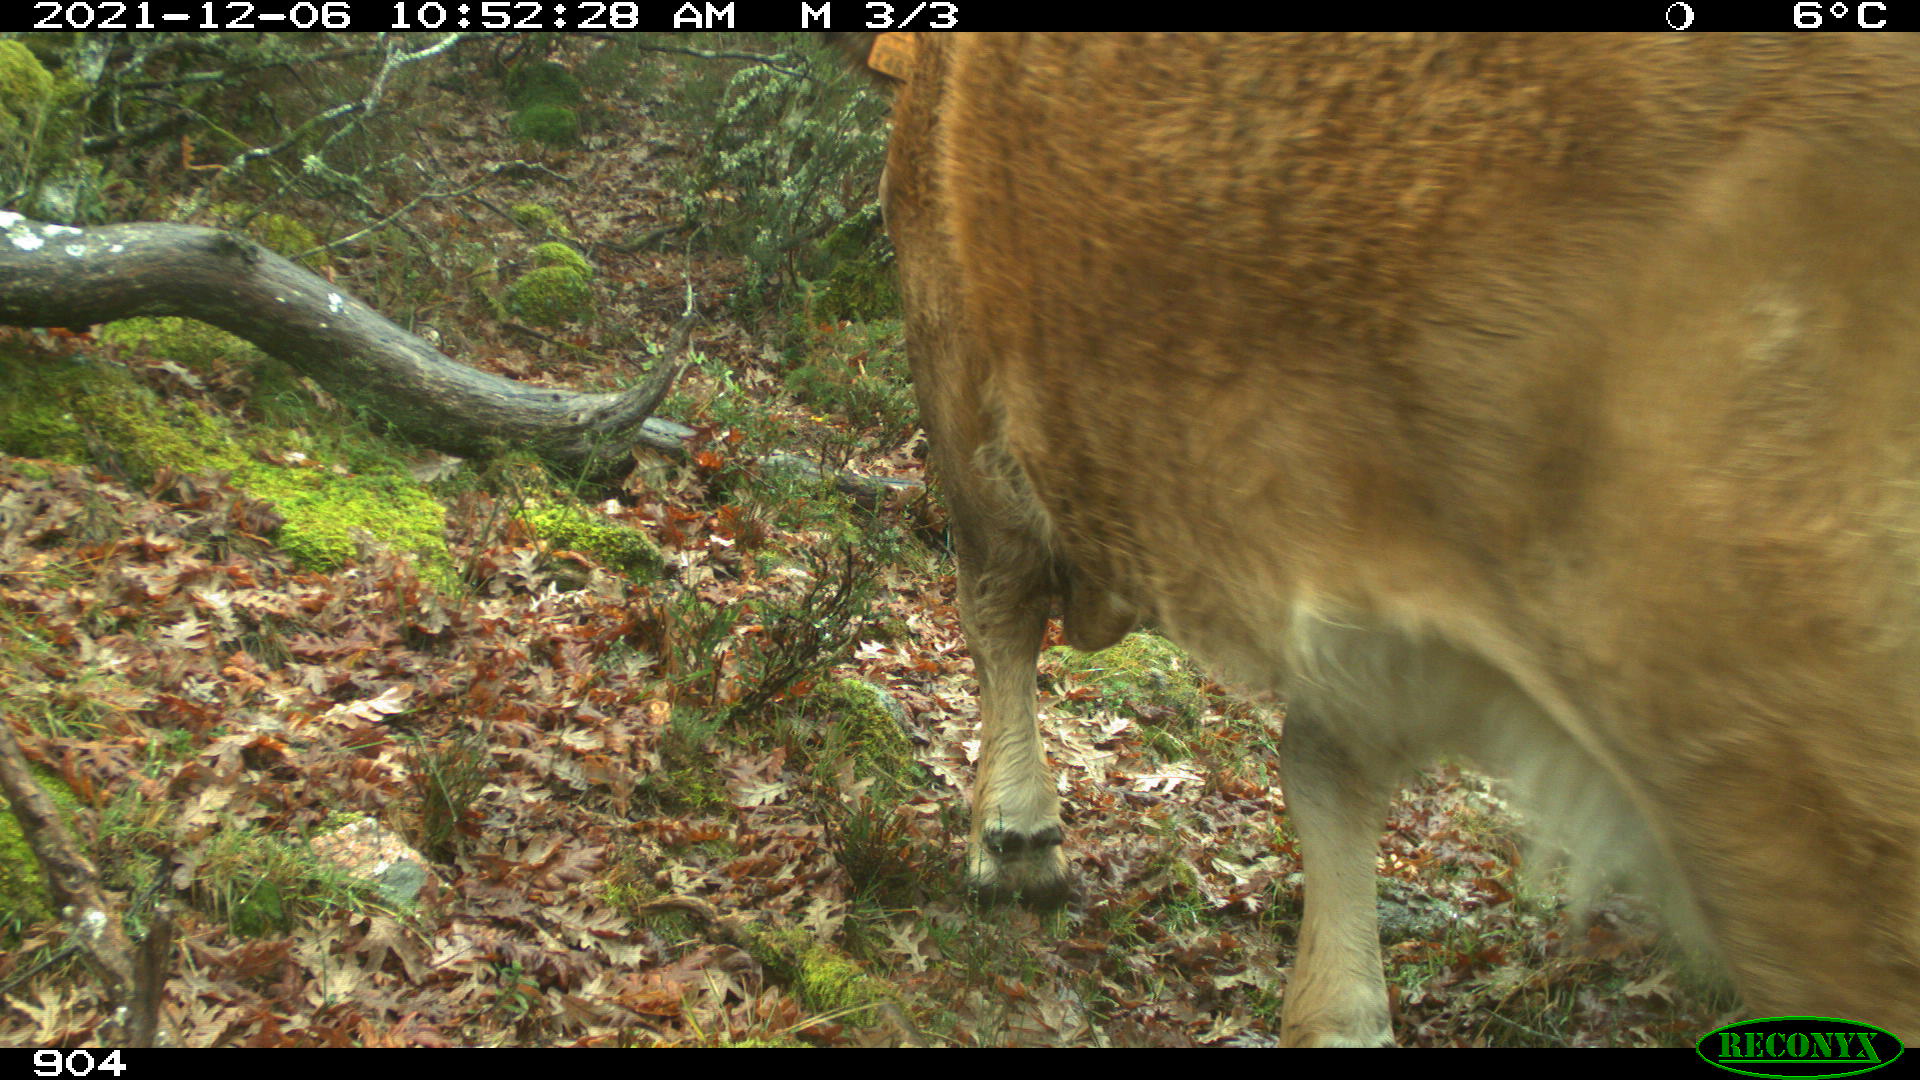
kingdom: Animalia
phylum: Chordata
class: Mammalia
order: Artiodactyla
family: Bovidae
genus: Bos
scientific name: Bos taurus
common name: Domesticated cattle
